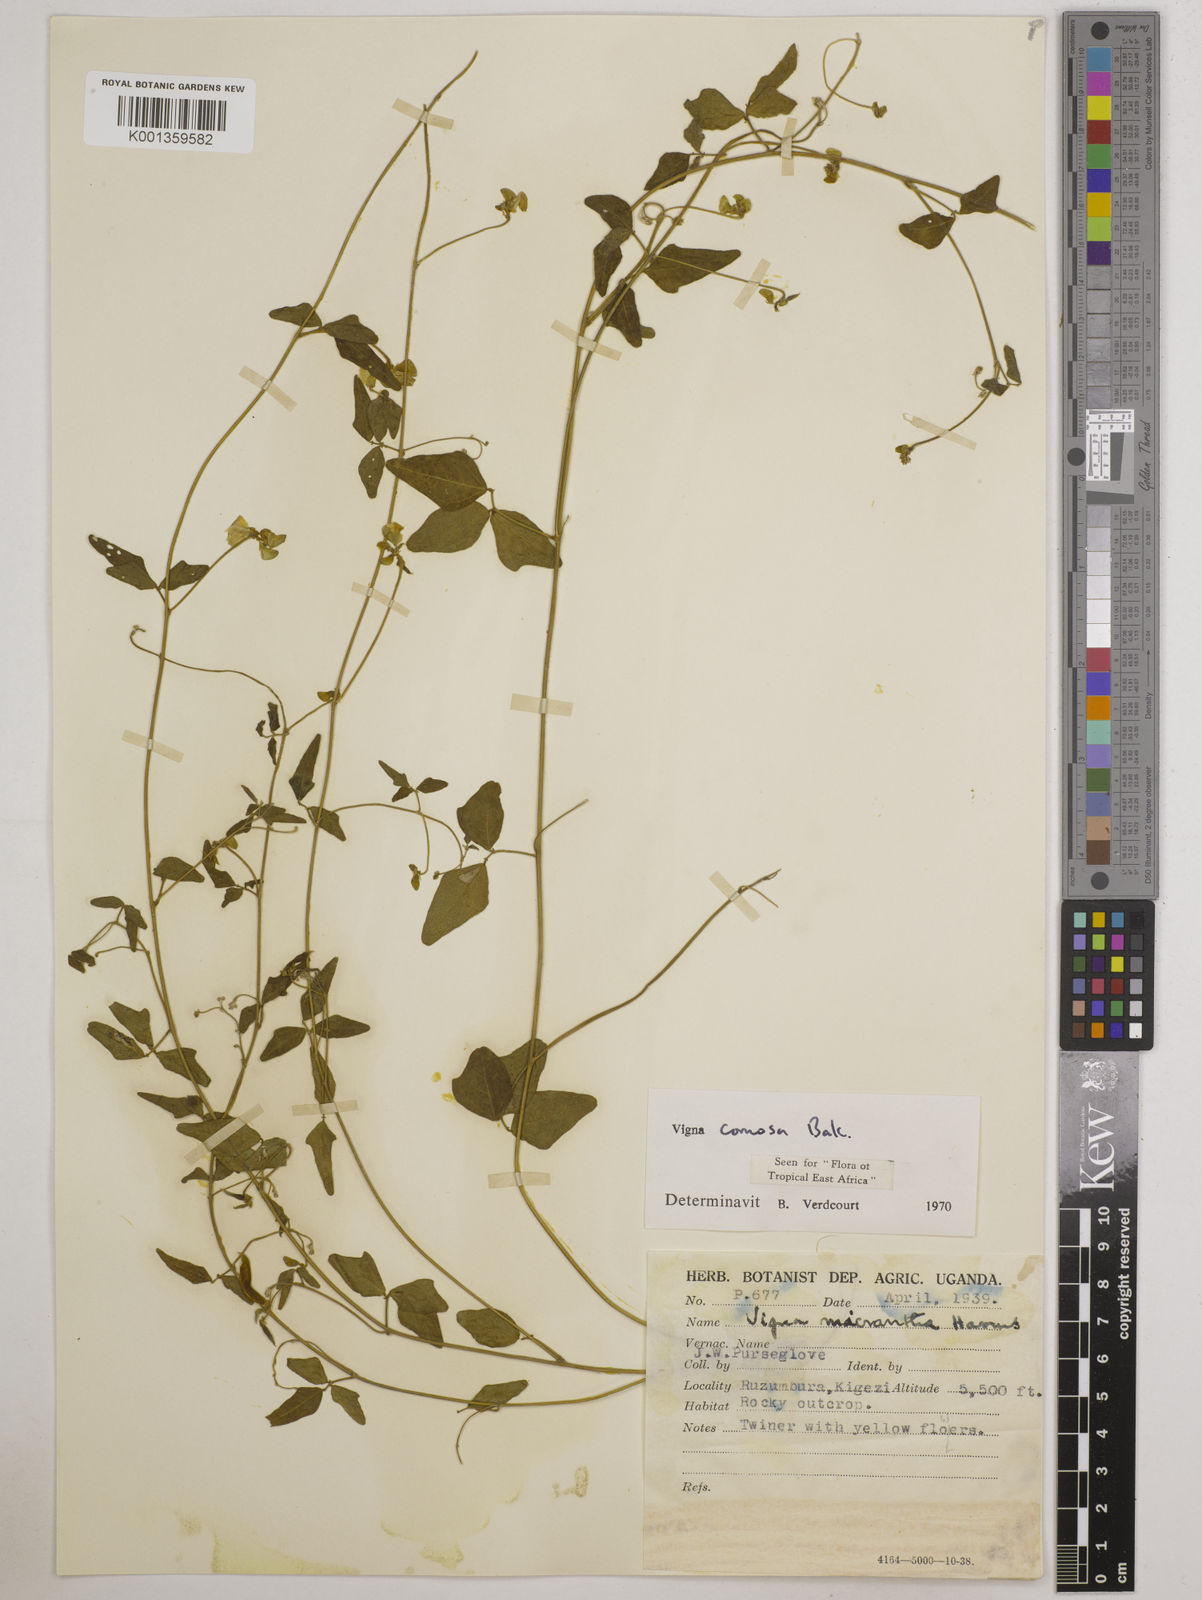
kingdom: Plantae
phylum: Tracheophyta
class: Magnoliopsida
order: Fabales
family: Fabaceae
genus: Vigna
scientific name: Vigna comosa
